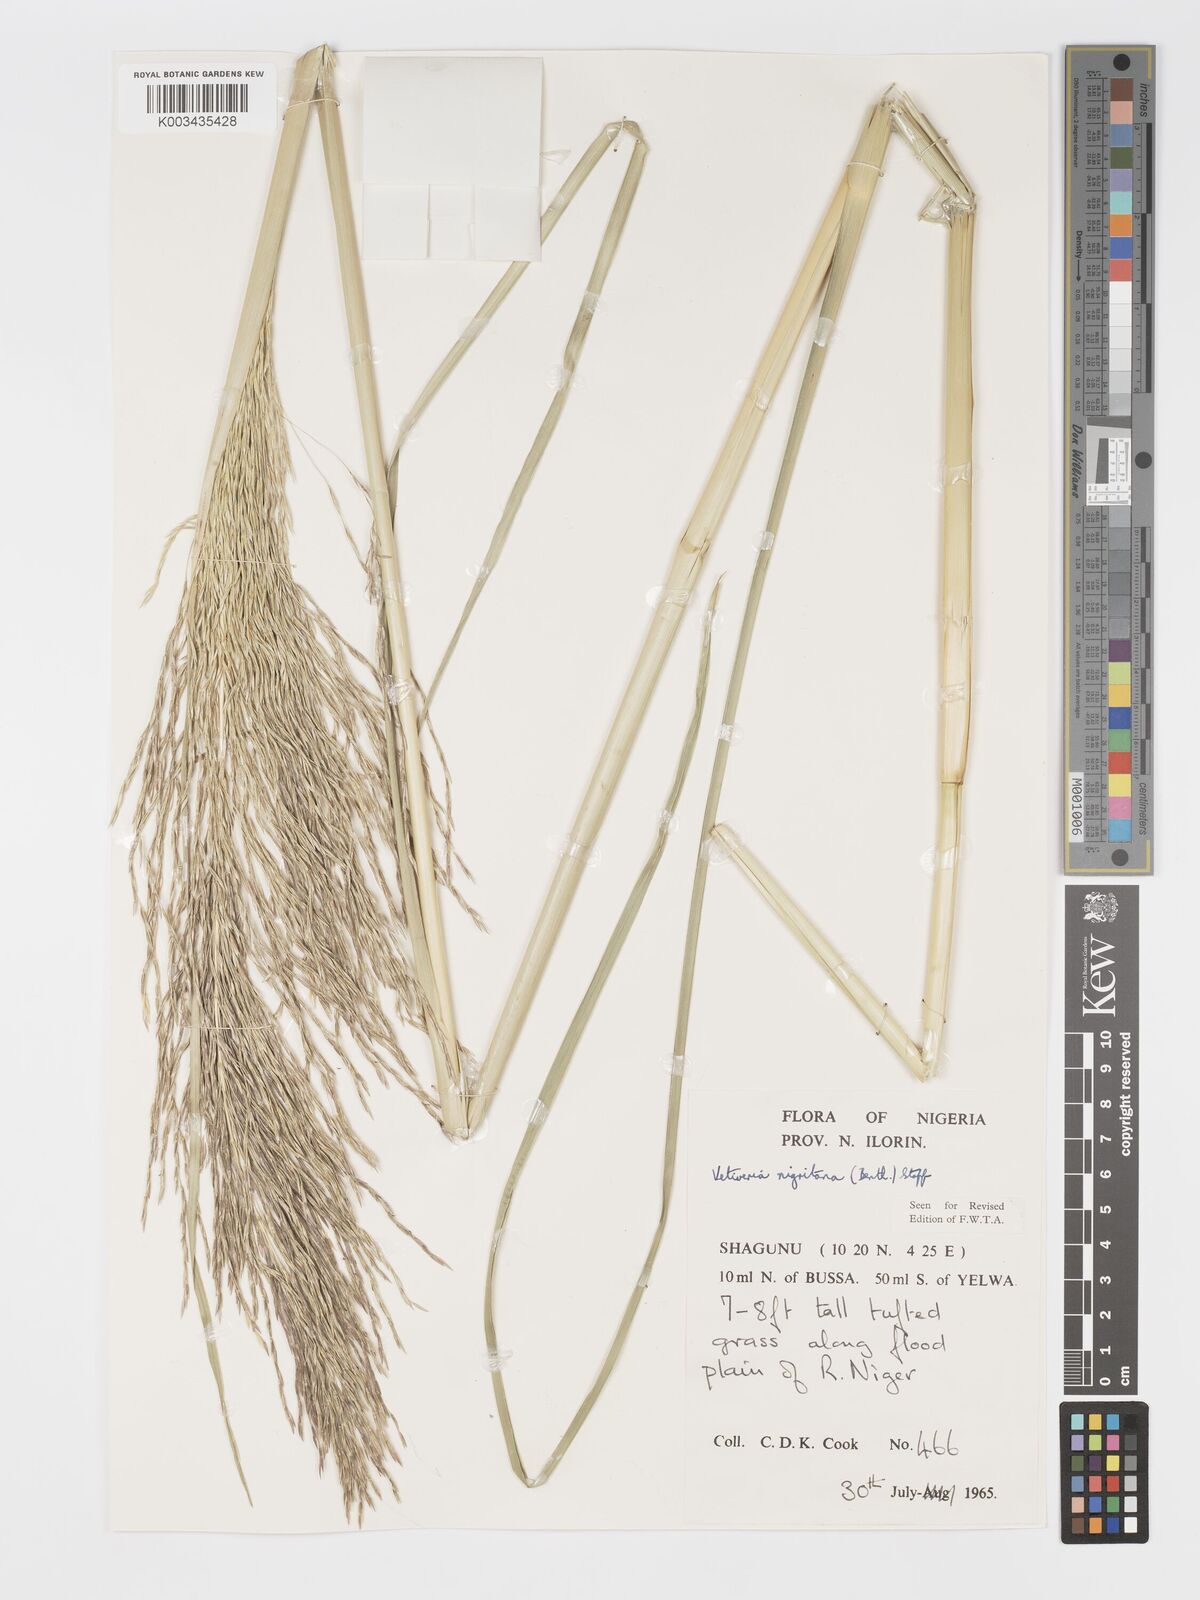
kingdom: Plantae
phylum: Tracheophyta
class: Liliopsida
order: Poales
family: Poaceae
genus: Chrysopogon
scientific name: Chrysopogon nigritanus
